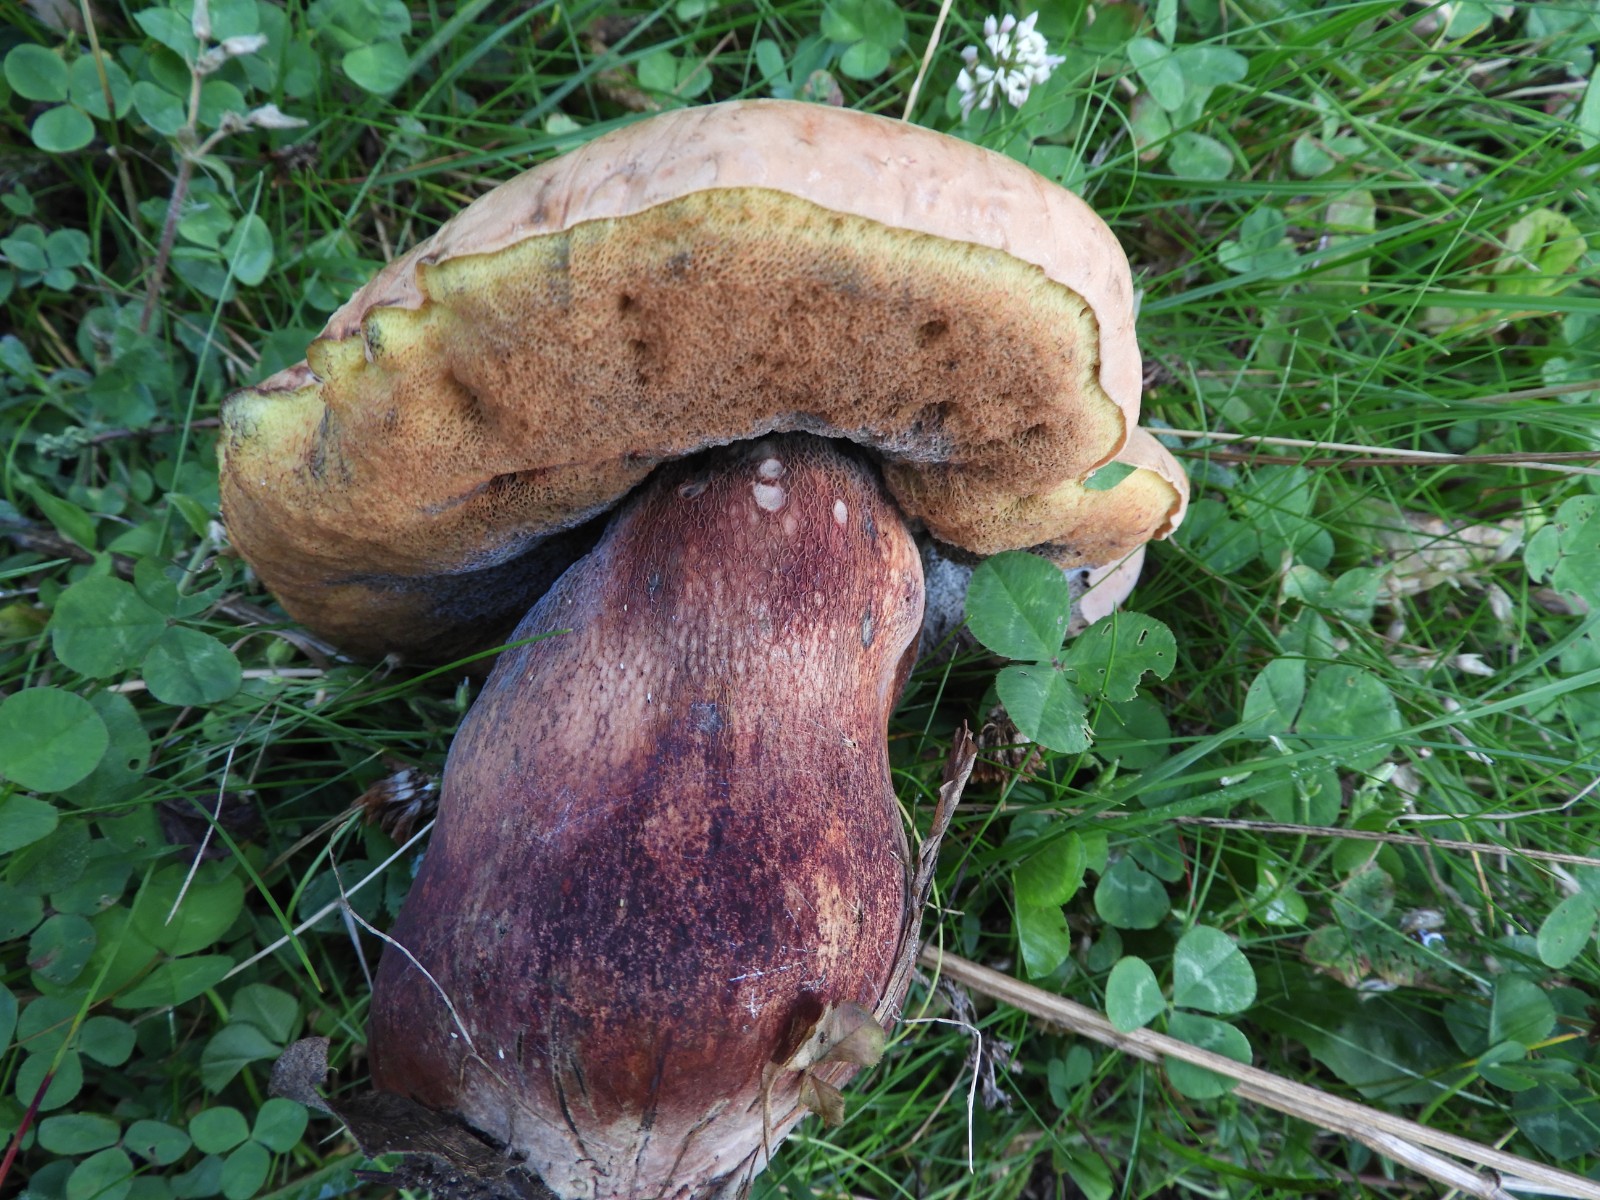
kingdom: Fungi
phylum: Basidiomycota
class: Agaricomycetes
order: Boletales
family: Boletaceae
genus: Suillellus
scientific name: Suillellus luridus
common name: netstokket indigorørhat
